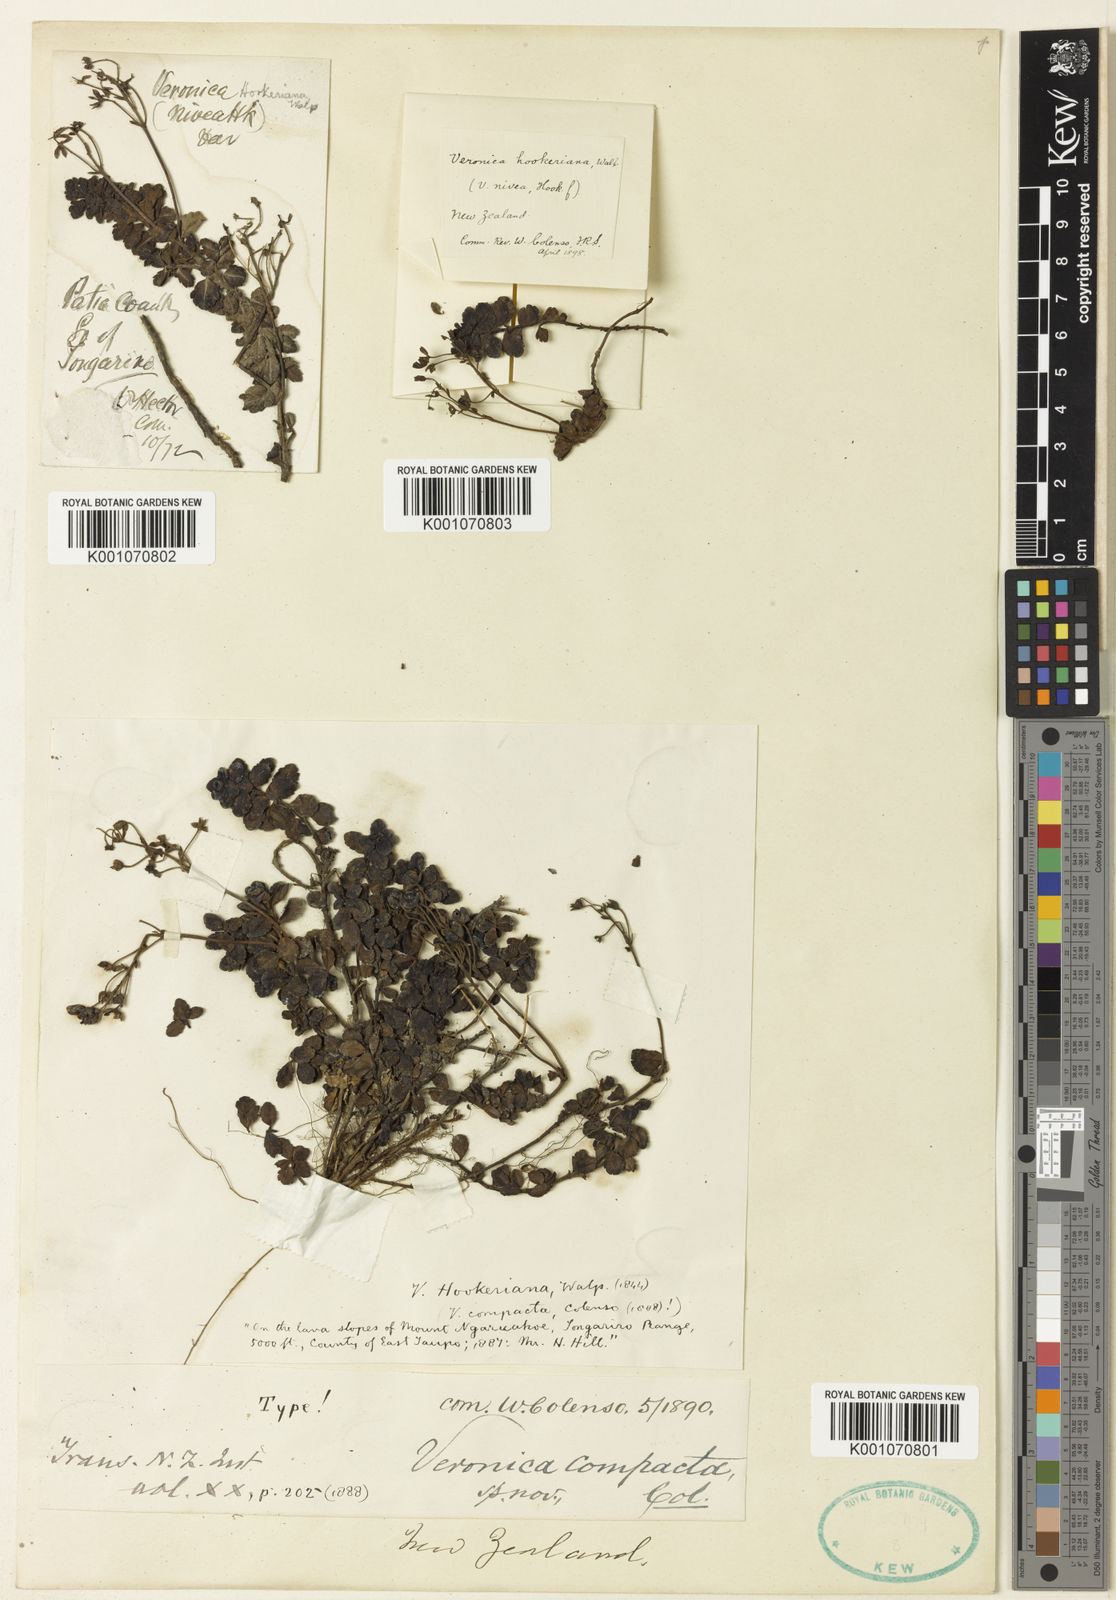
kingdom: Plantae
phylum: Tracheophyta
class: Magnoliopsida
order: Lamiales
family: Plantaginaceae
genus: Veronica
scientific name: Veronica hookeriana
